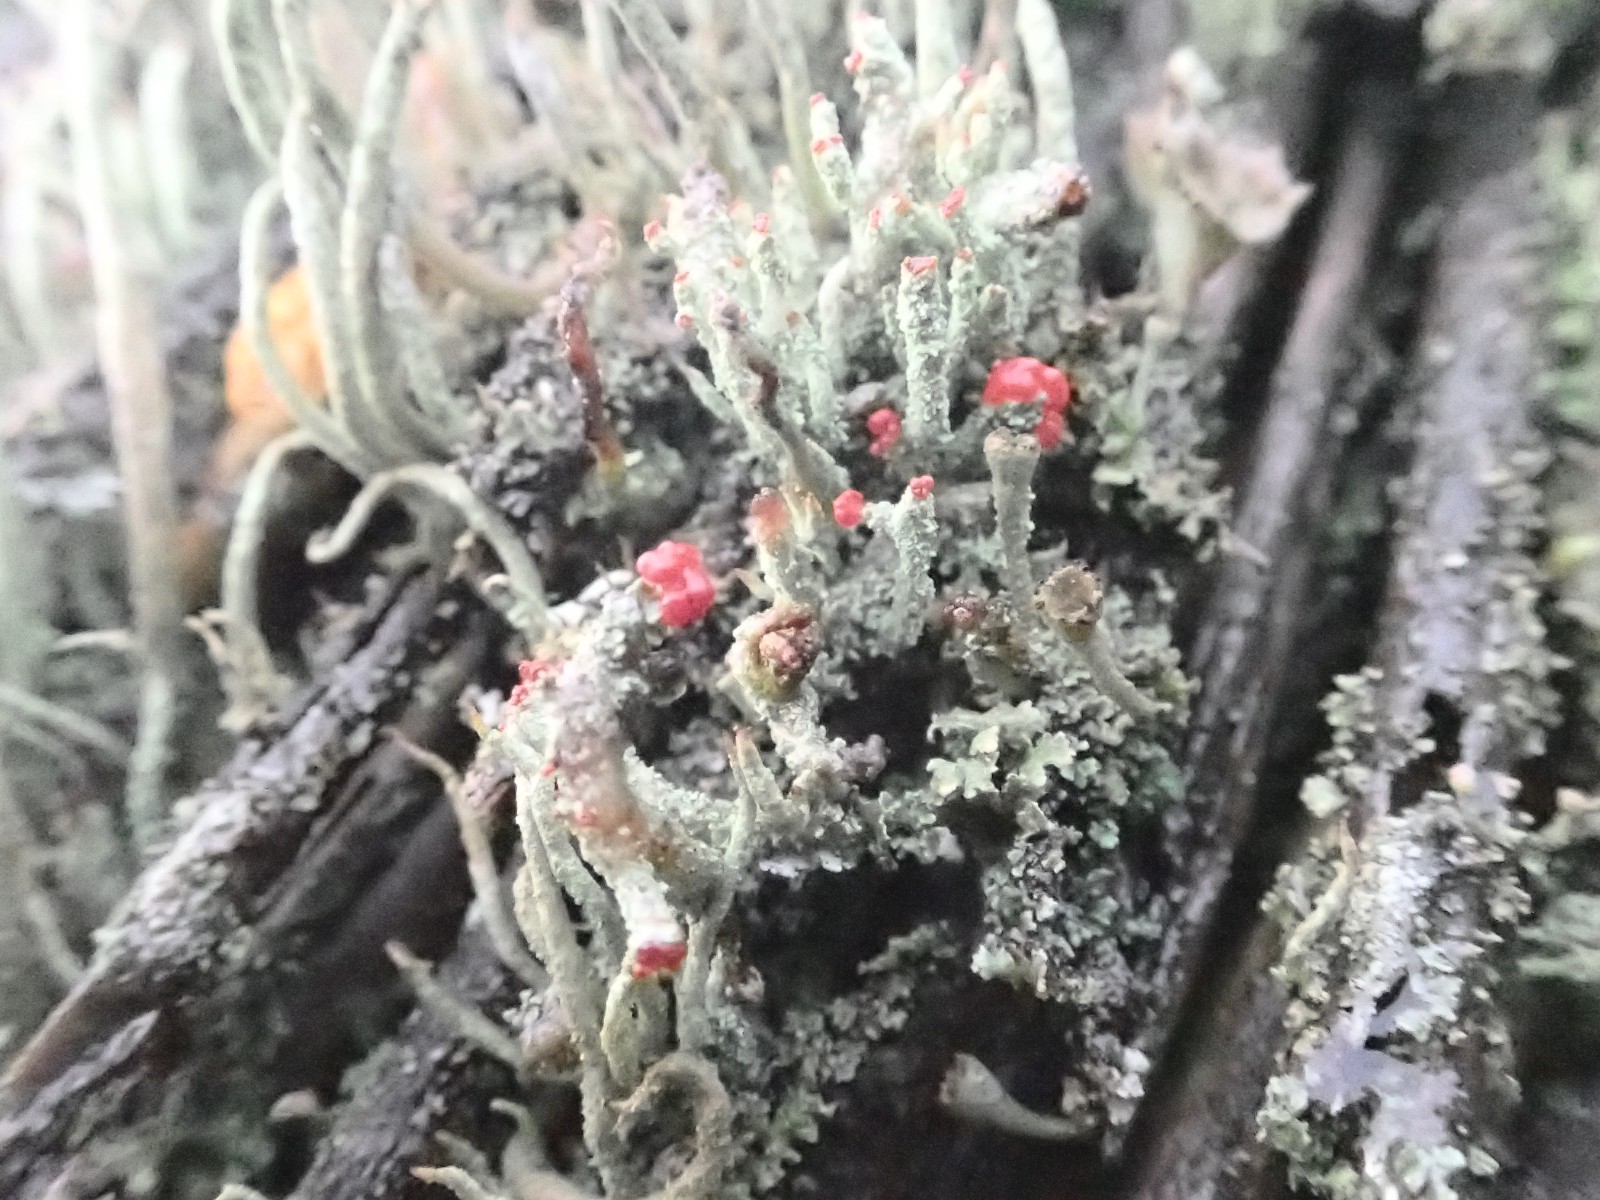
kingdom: Fungi
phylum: Ascomycota
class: Lecanoromycetes
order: Lecanorales
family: Cladoniaceae
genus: Cladonia
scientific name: Cladonia floerkeana
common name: lakrød bægerlav
